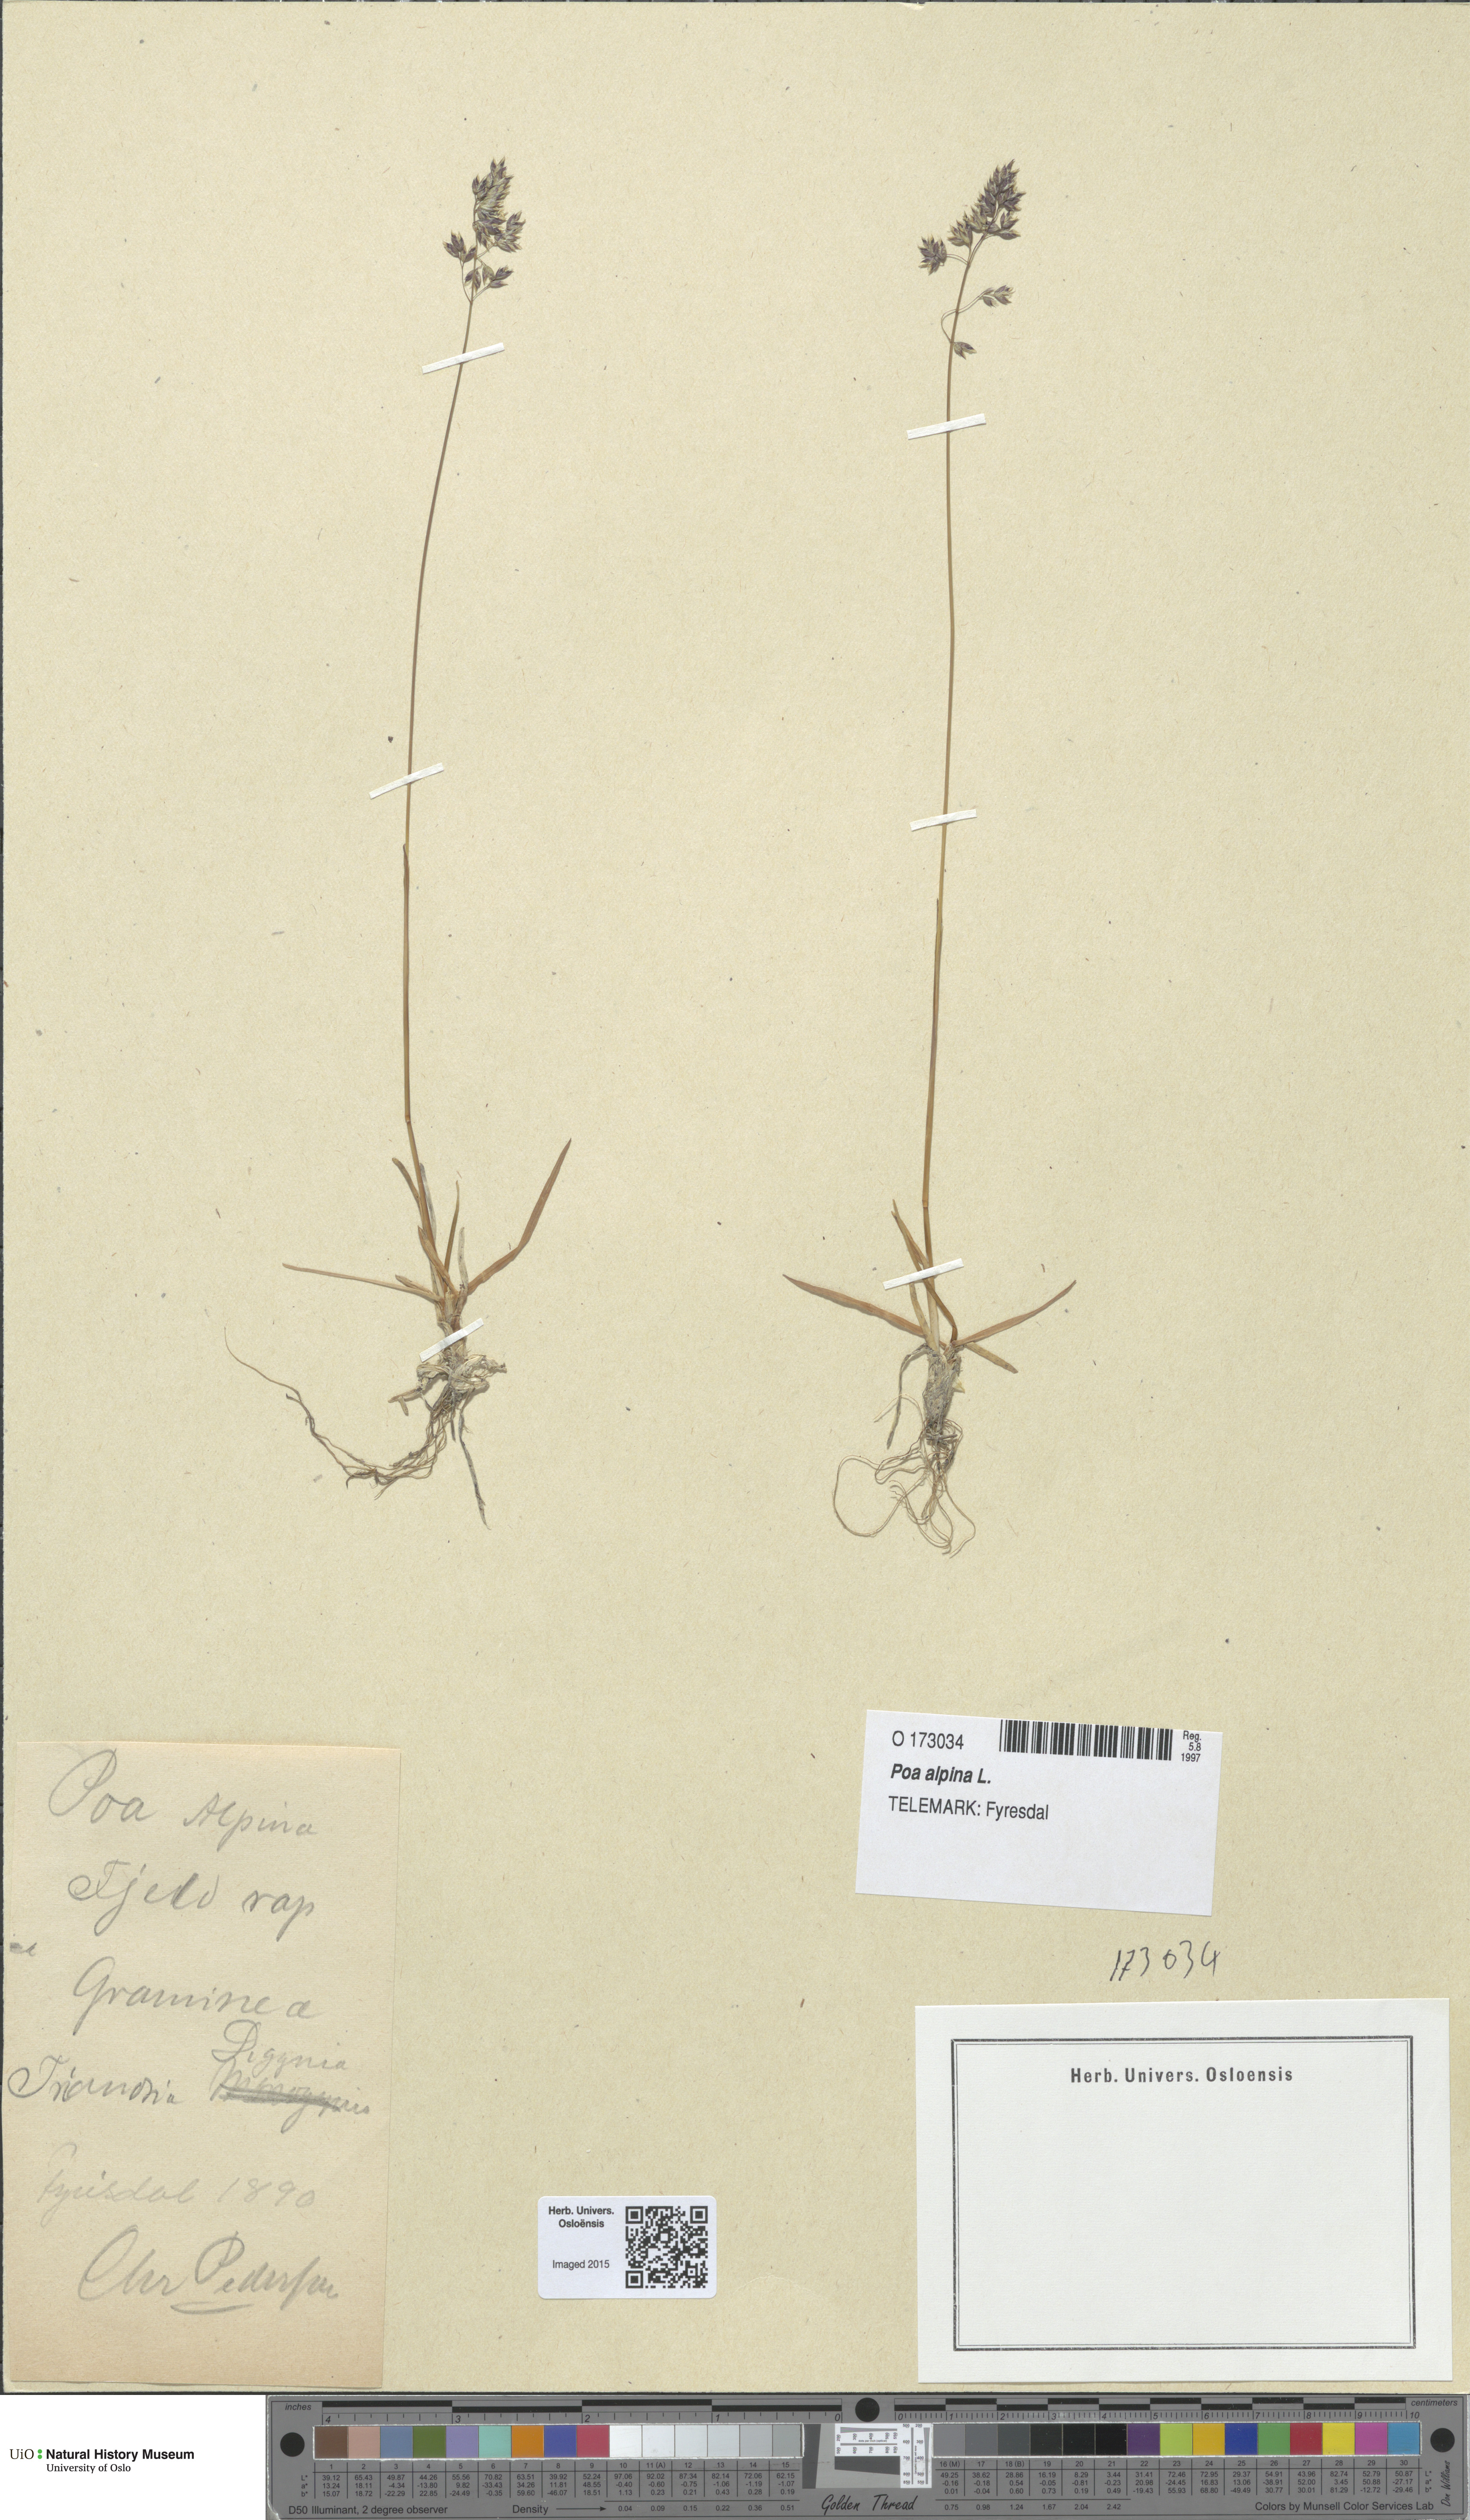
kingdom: Plantae
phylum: Tracheophyta
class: Liliopsida
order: Poales
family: Poaceae
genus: Poa
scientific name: Poa alpina
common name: Alpine bluegrass
